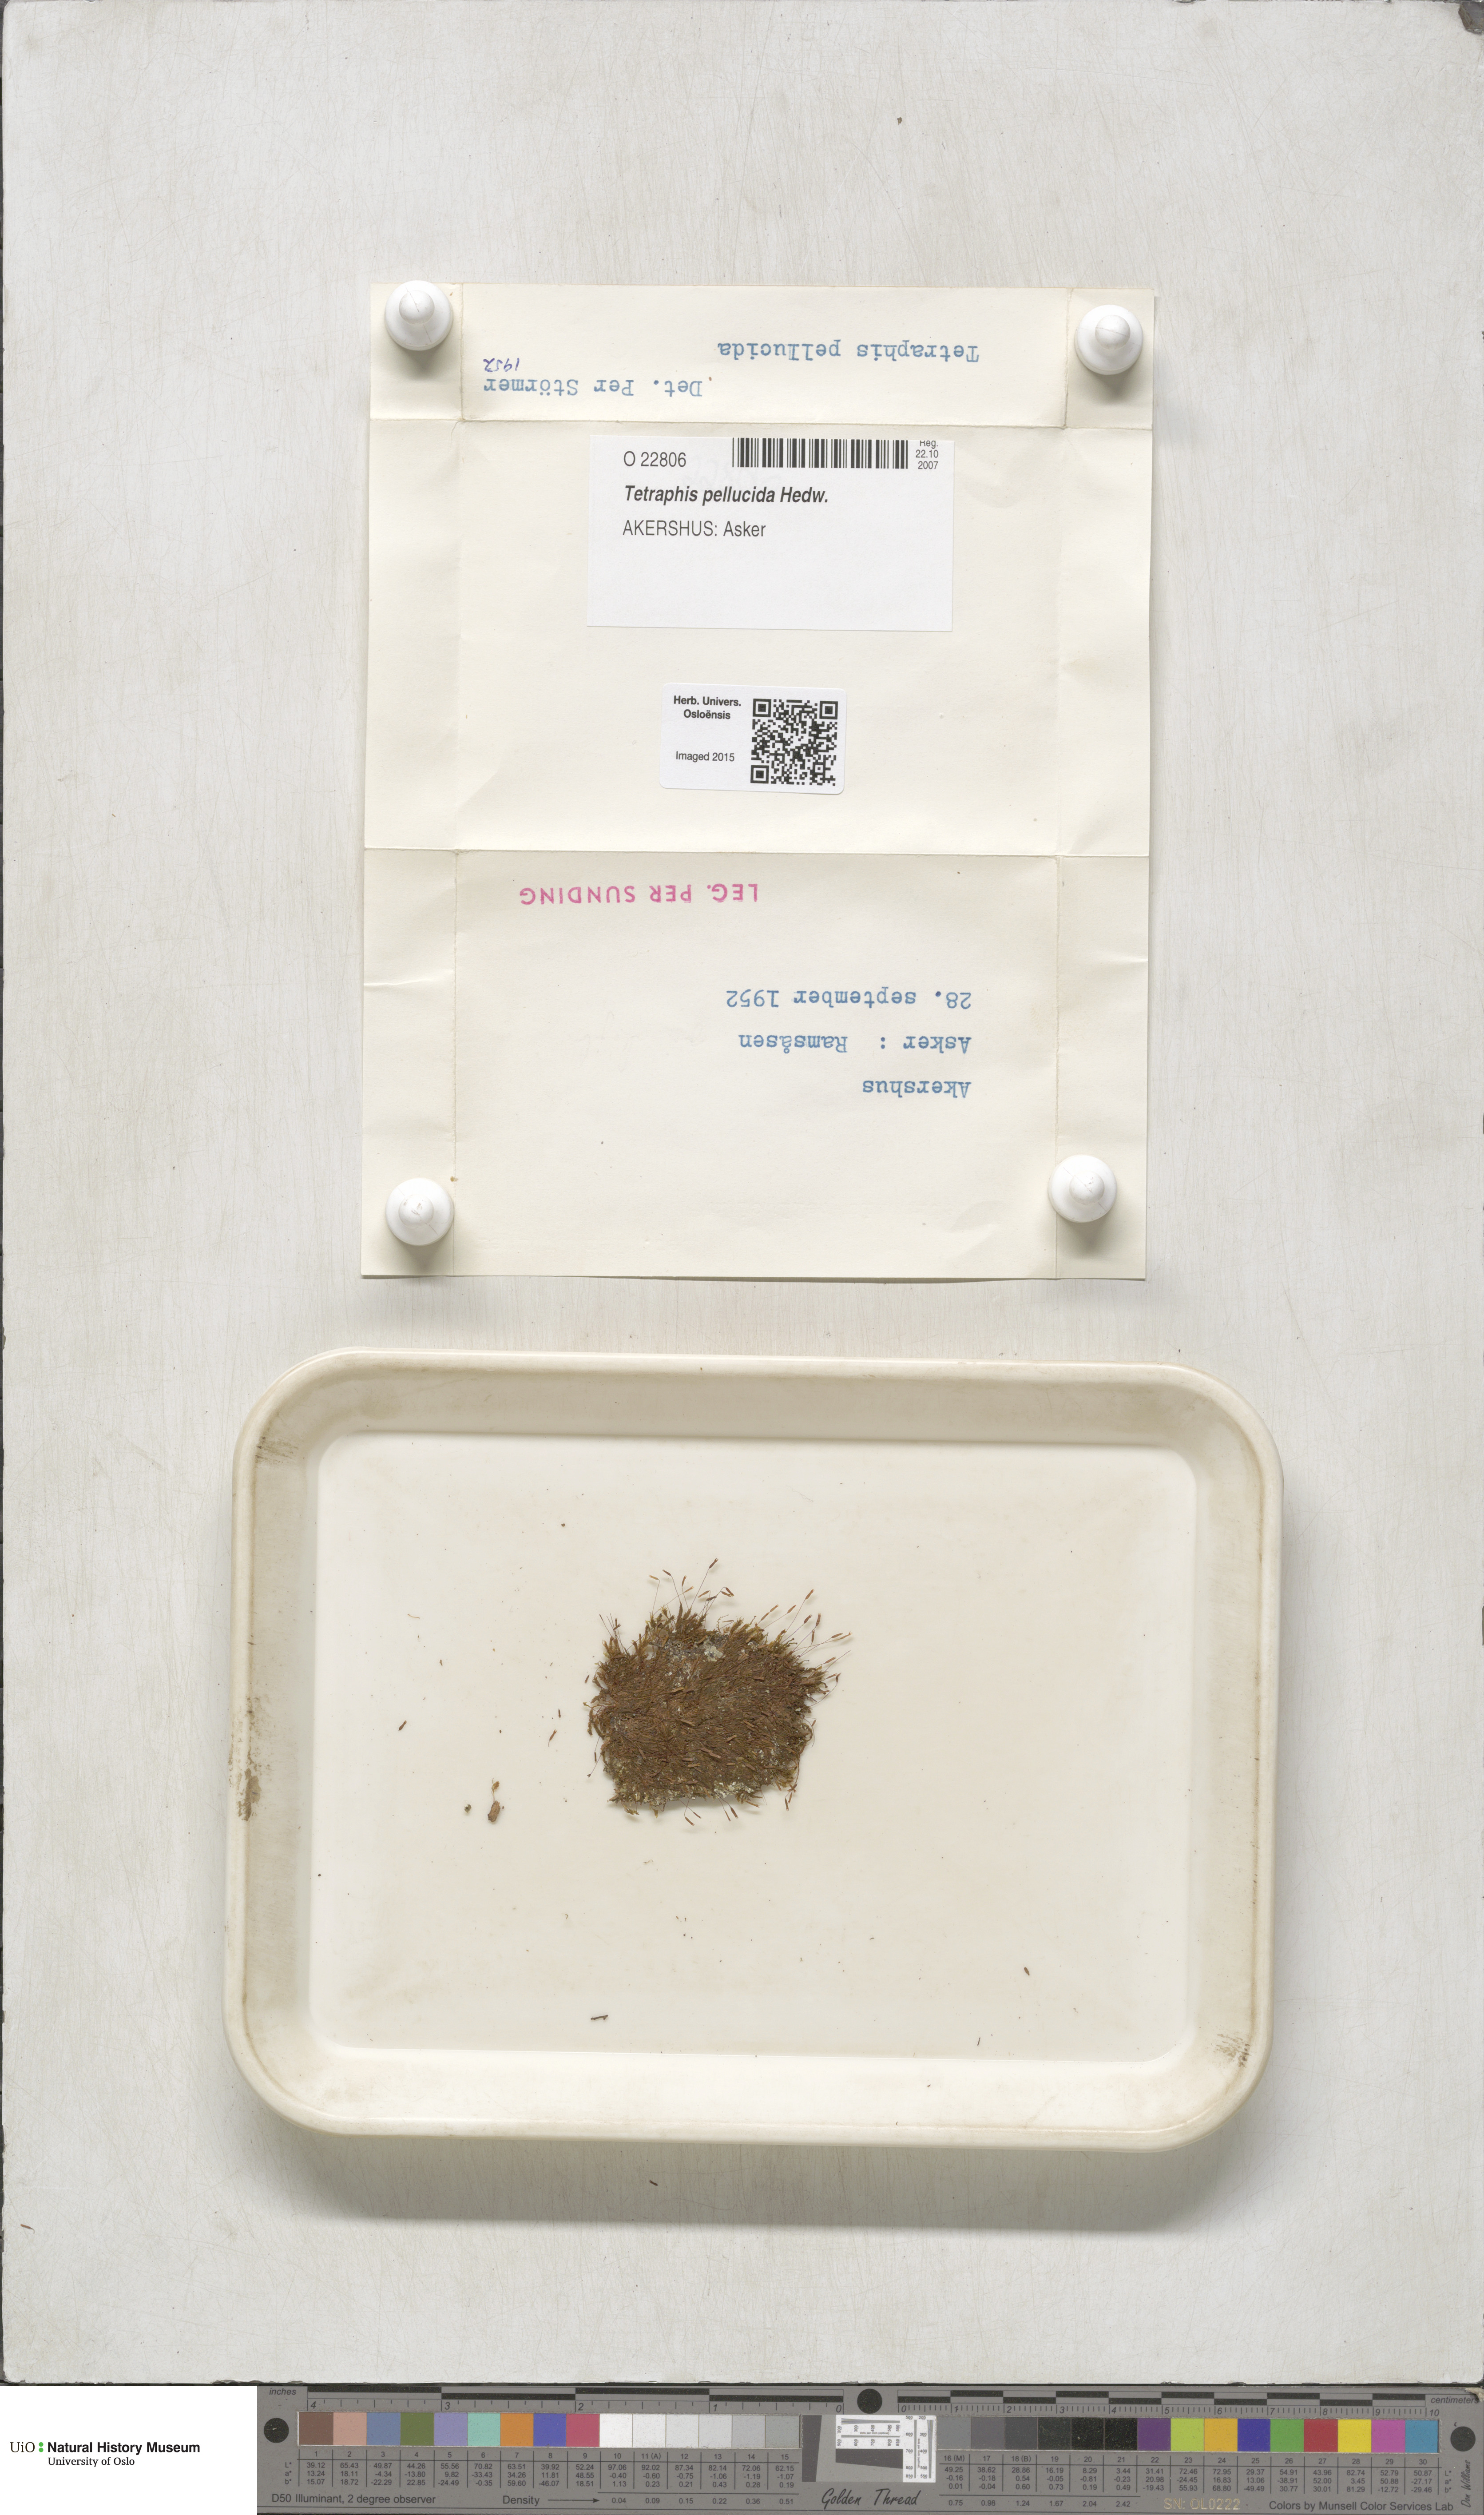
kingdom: Plantae
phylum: Bryophyta
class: Polytrichopsida
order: Tetraphidales
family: Tetraphidaceae
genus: Tetraphis
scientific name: Tetraphis pellucida
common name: Common four-toothed moss
